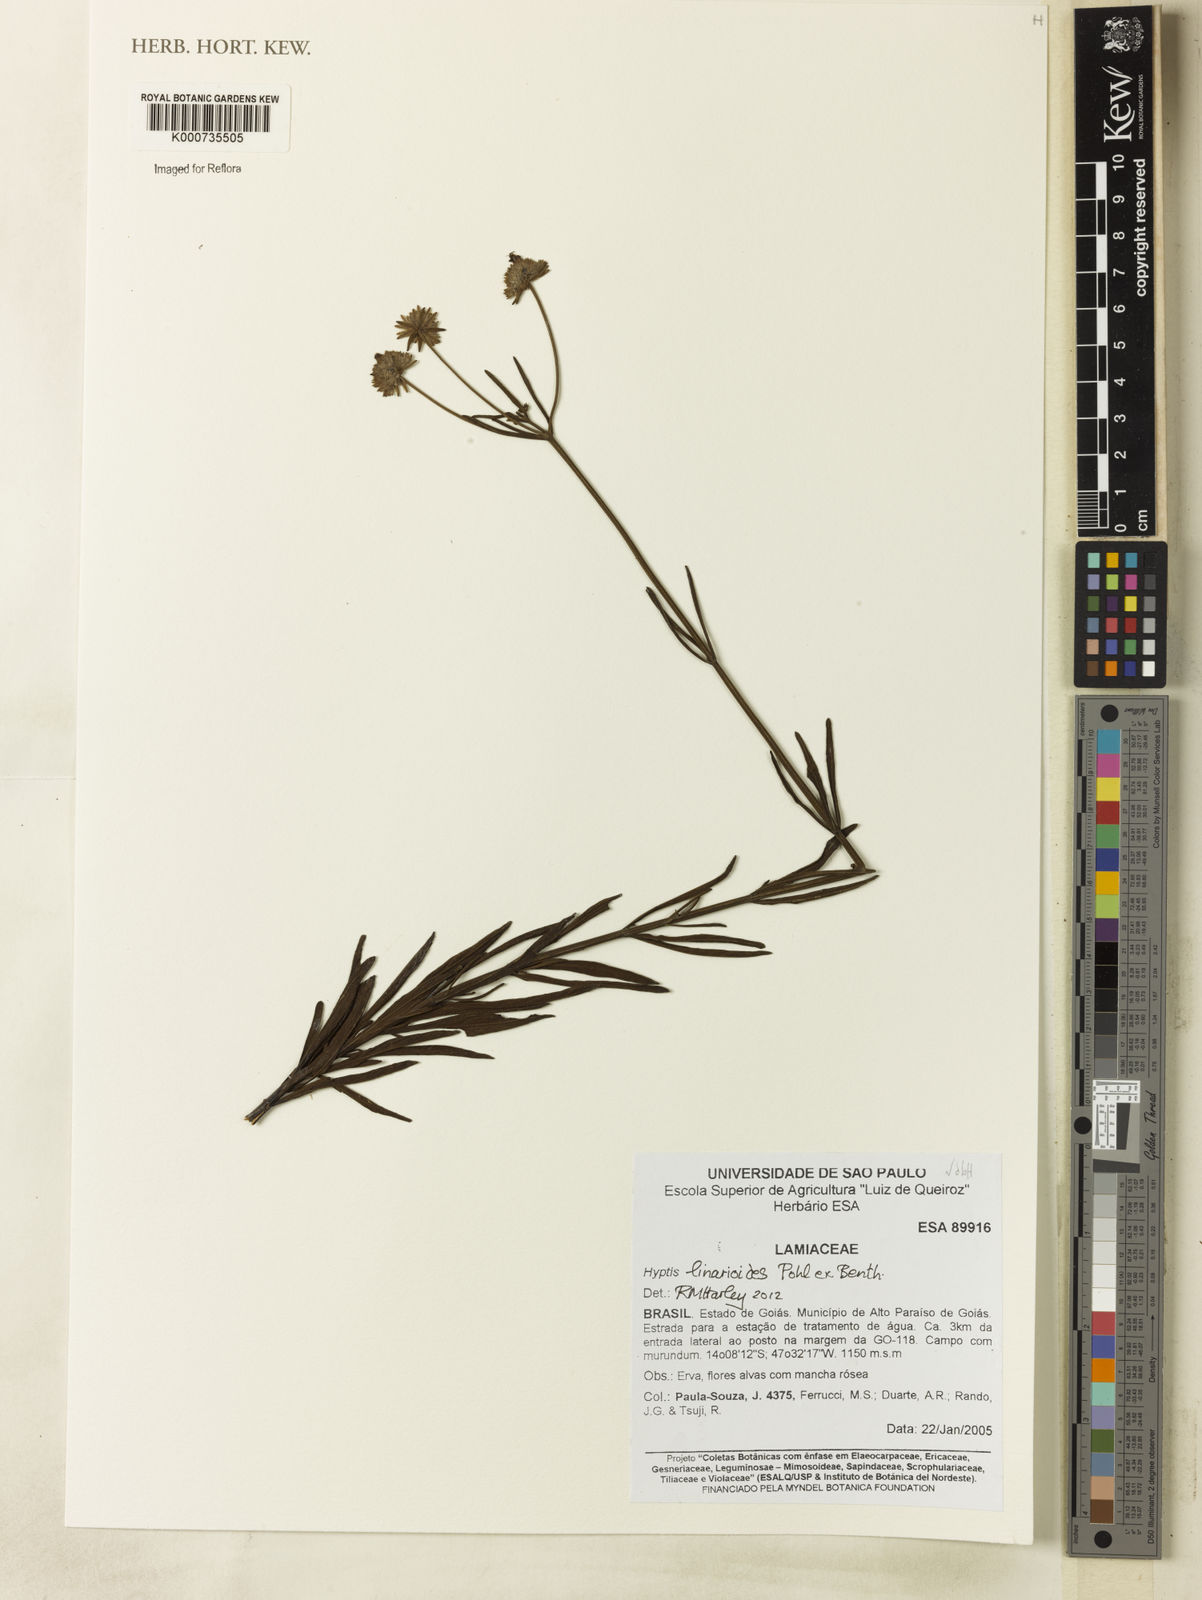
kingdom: Plantae
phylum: Tracheophyta
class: Magnoliopsida
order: Lamiales
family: Lamiaceae
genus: Hyptis
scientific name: Hyptis linarioides
